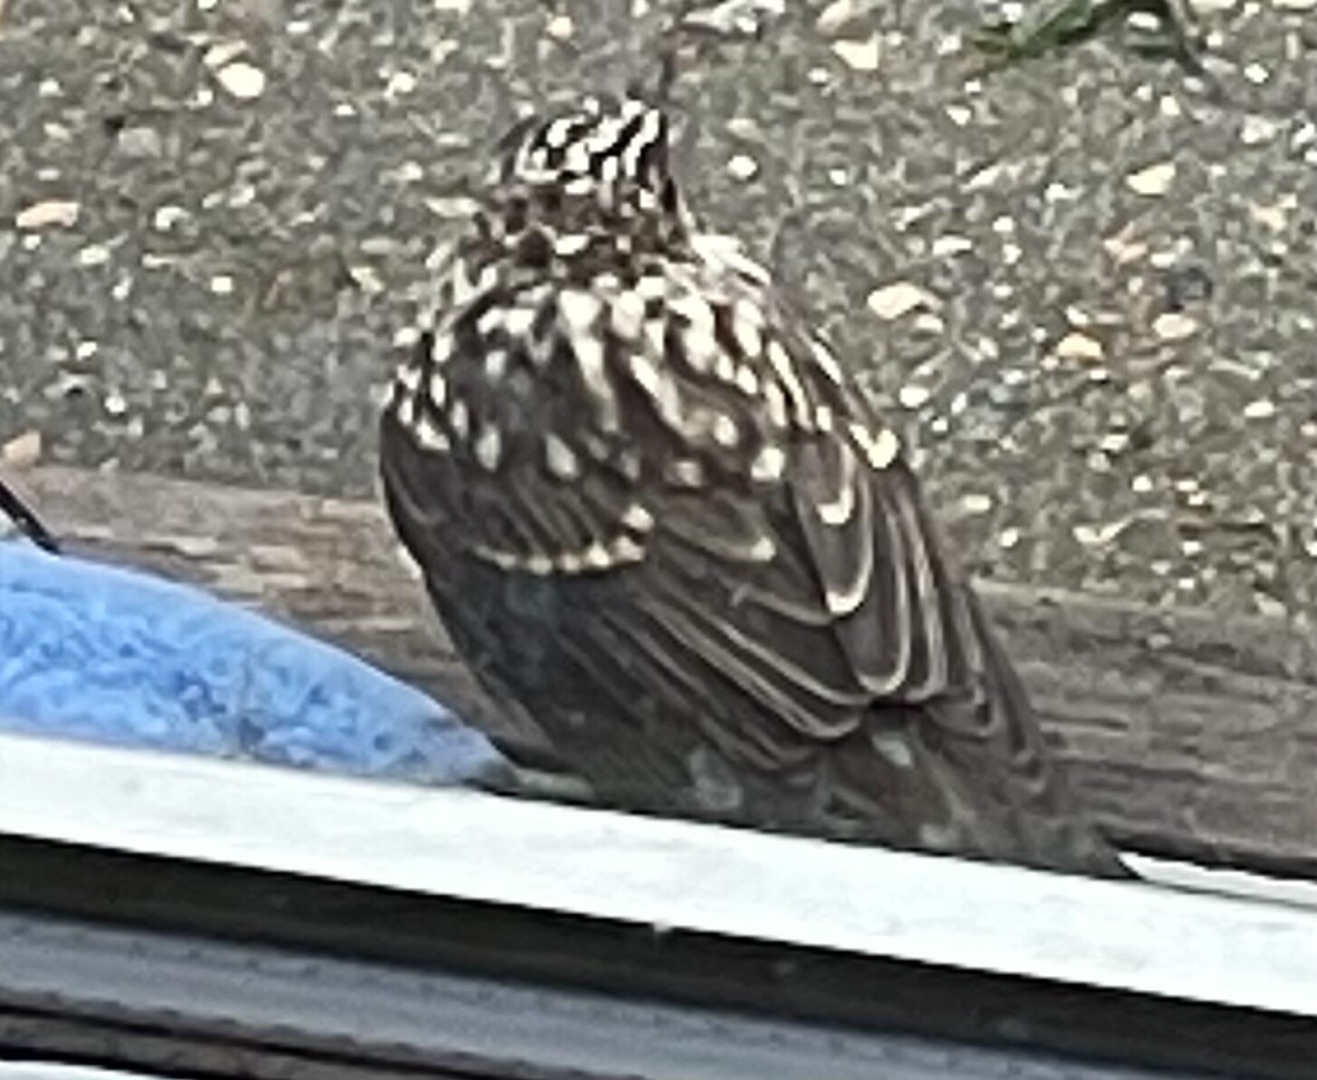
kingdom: Animalia
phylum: Chordata
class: Aves
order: Passeriformes
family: Turdidae
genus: Turdus
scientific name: Turdus merula
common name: Solsort
